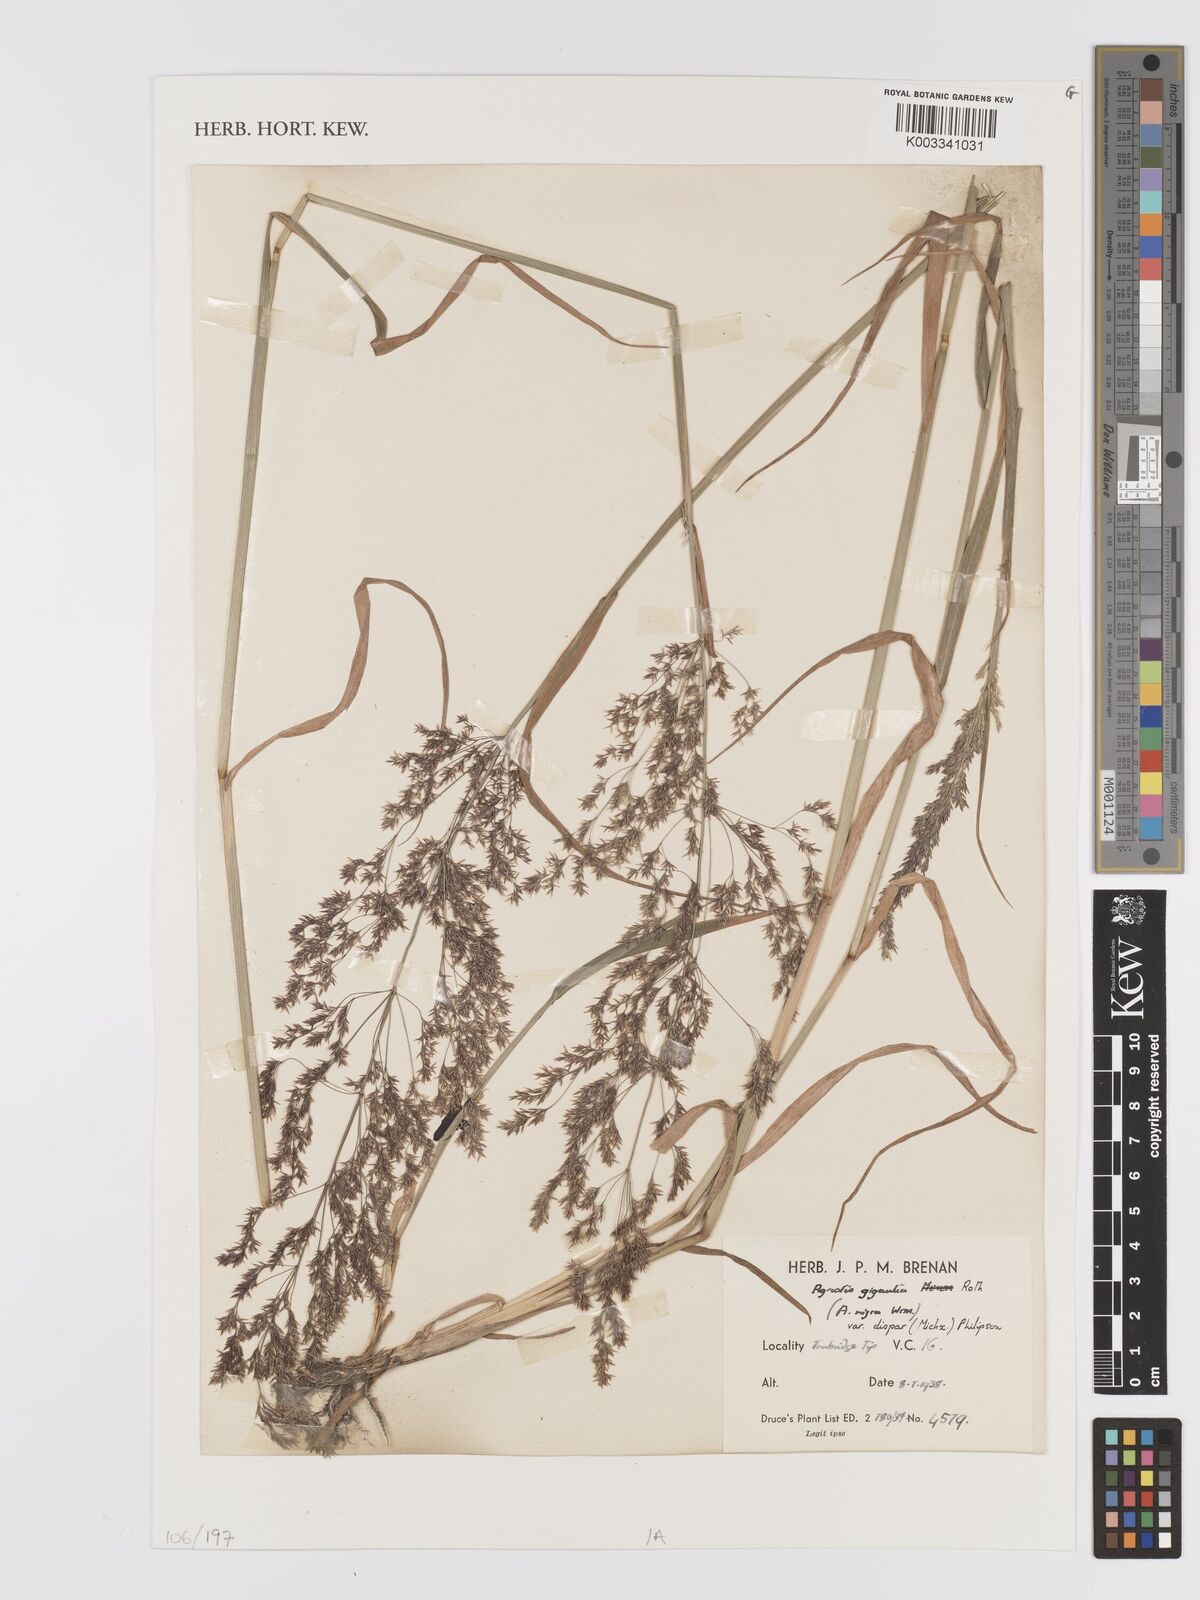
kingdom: Plantae
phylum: Tracheophyta
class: Liliopsida
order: Poales
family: Poaceae
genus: Agrostis
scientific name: Agrostis gigantea
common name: Black bent
